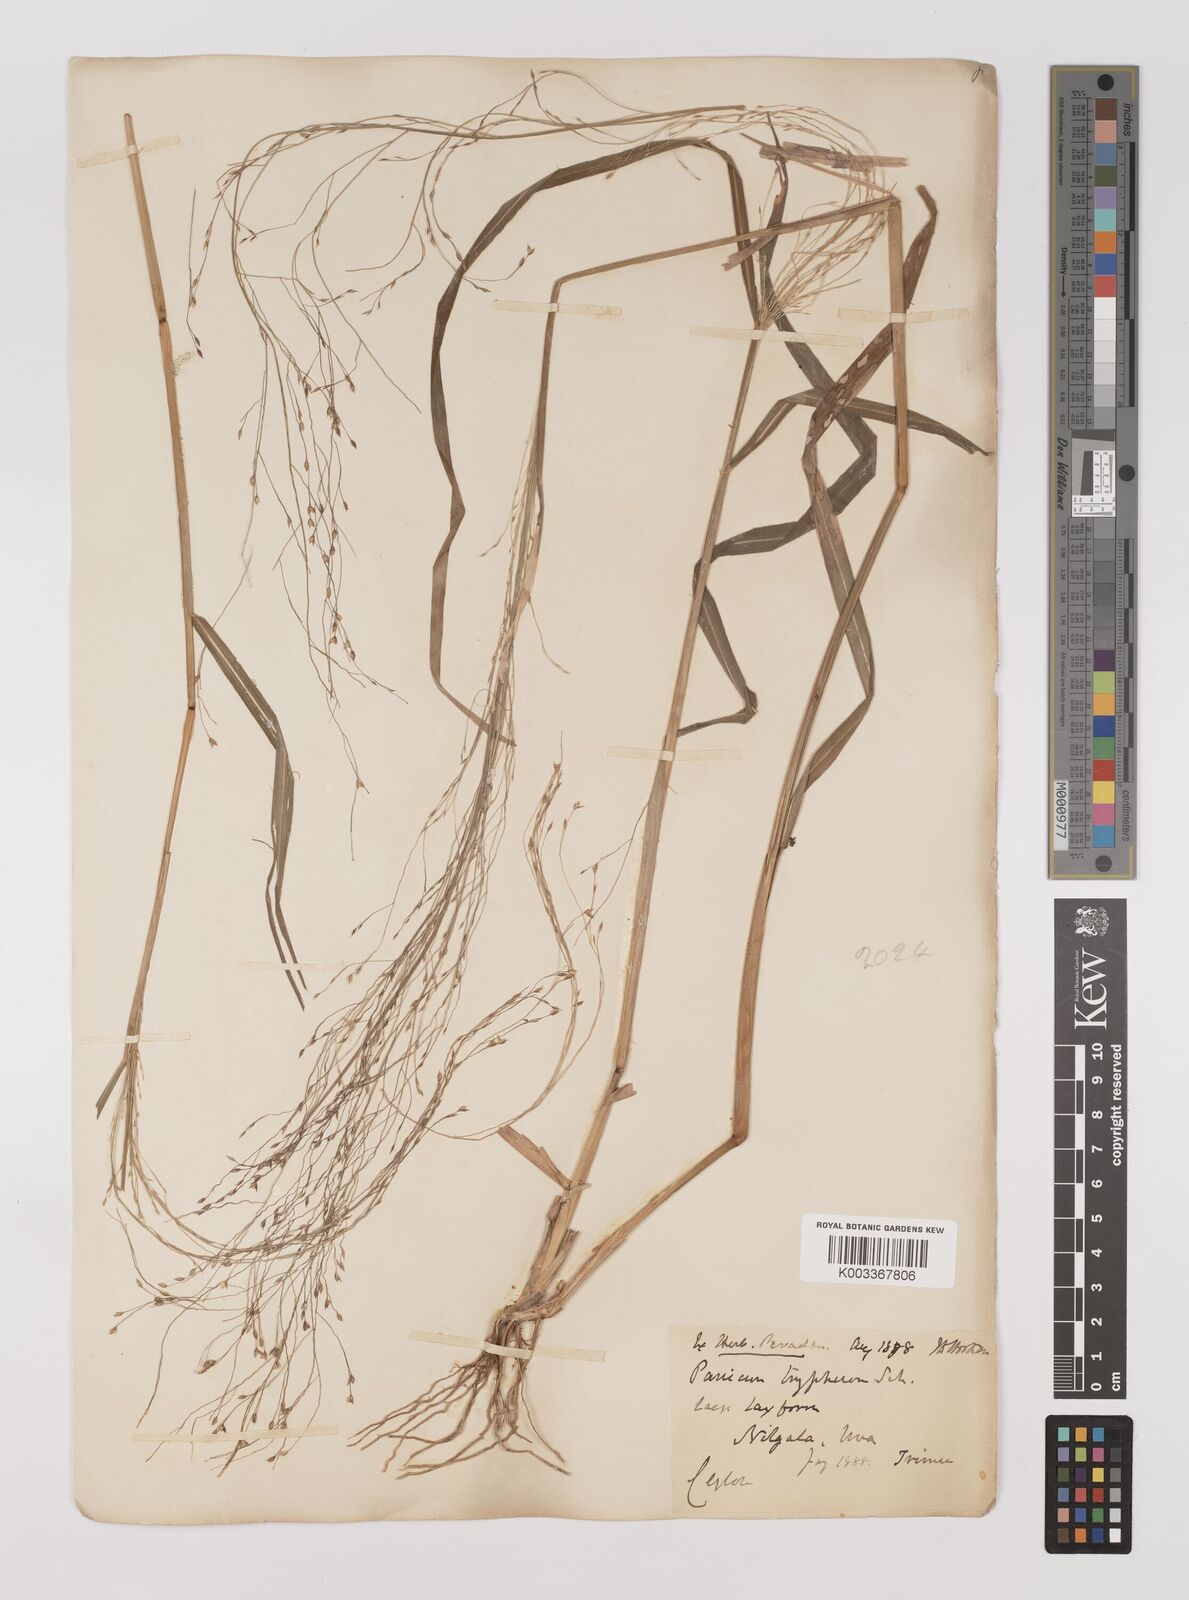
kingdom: Plantae
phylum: Tracheophyta
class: Liliopsida
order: Poales
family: Poaceae
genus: Panicum
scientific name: Panicum curviflorum
